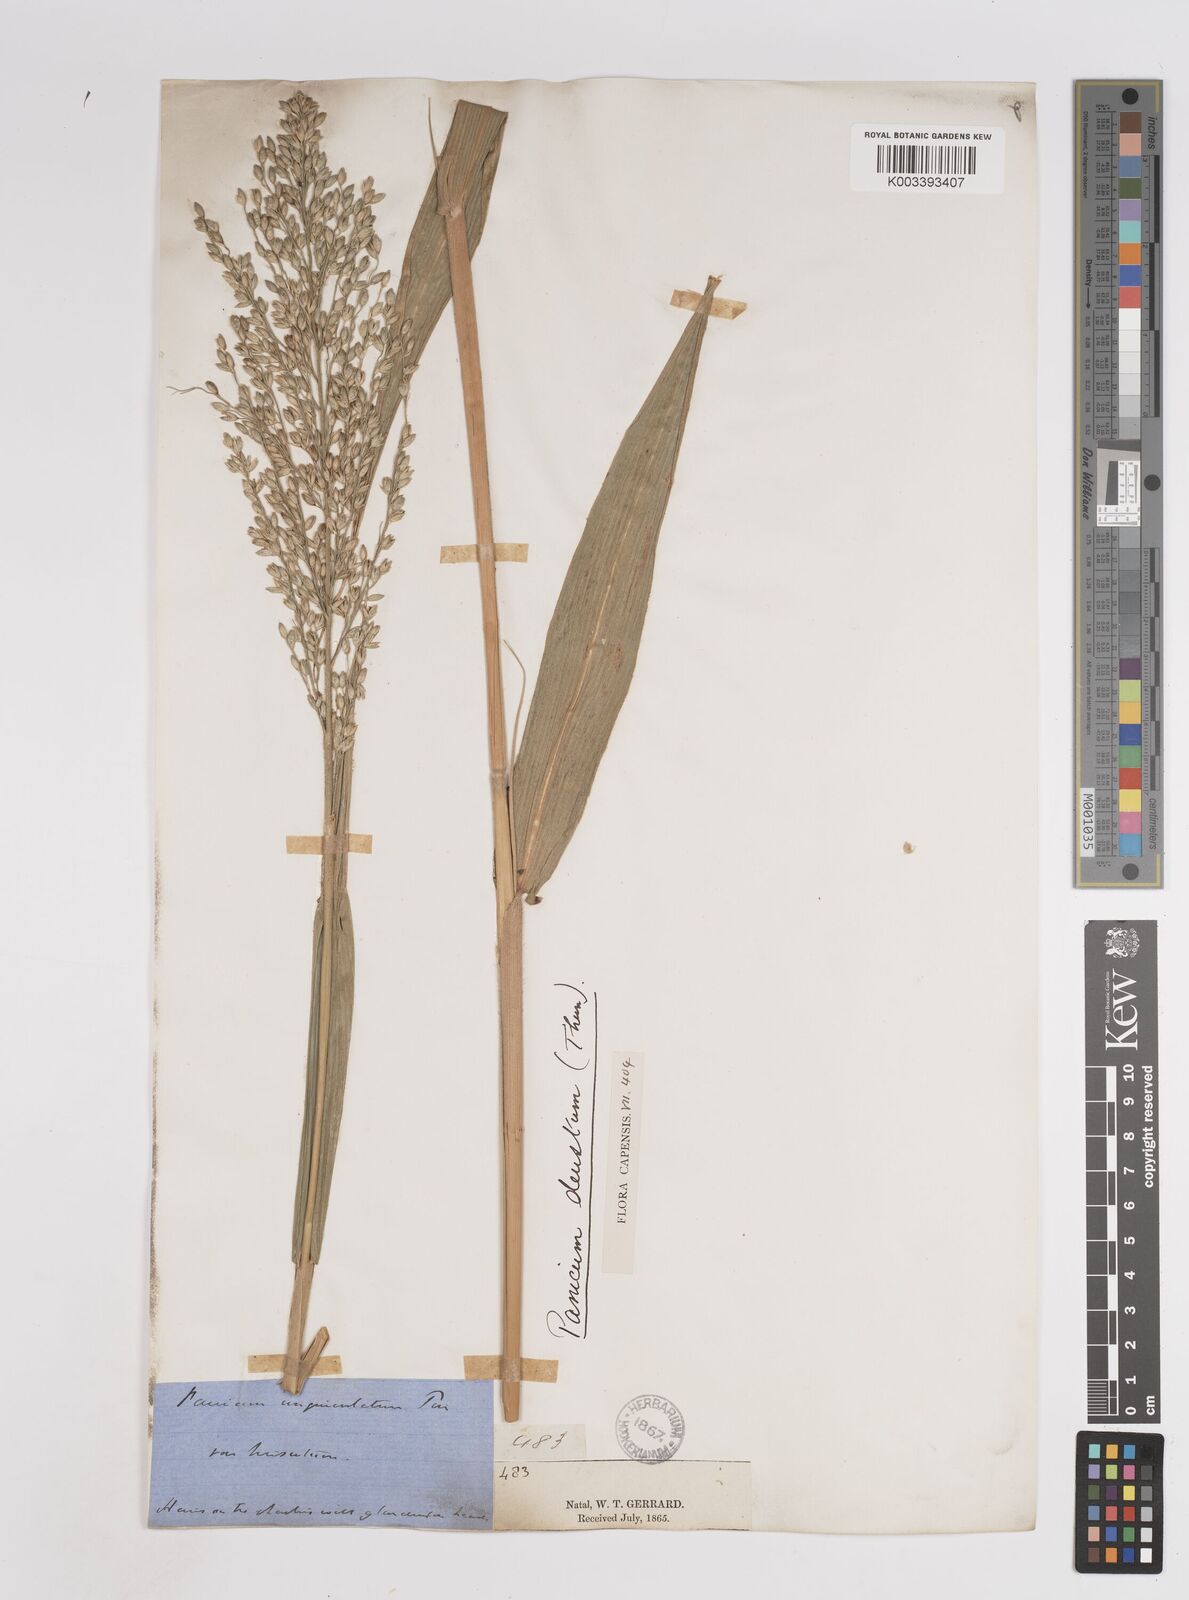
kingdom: Plantae
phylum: Tracheophyta
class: Liliopsida
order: Poales
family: Poaceae
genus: Panicum
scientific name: Panicum deustum
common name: Reed panicum
